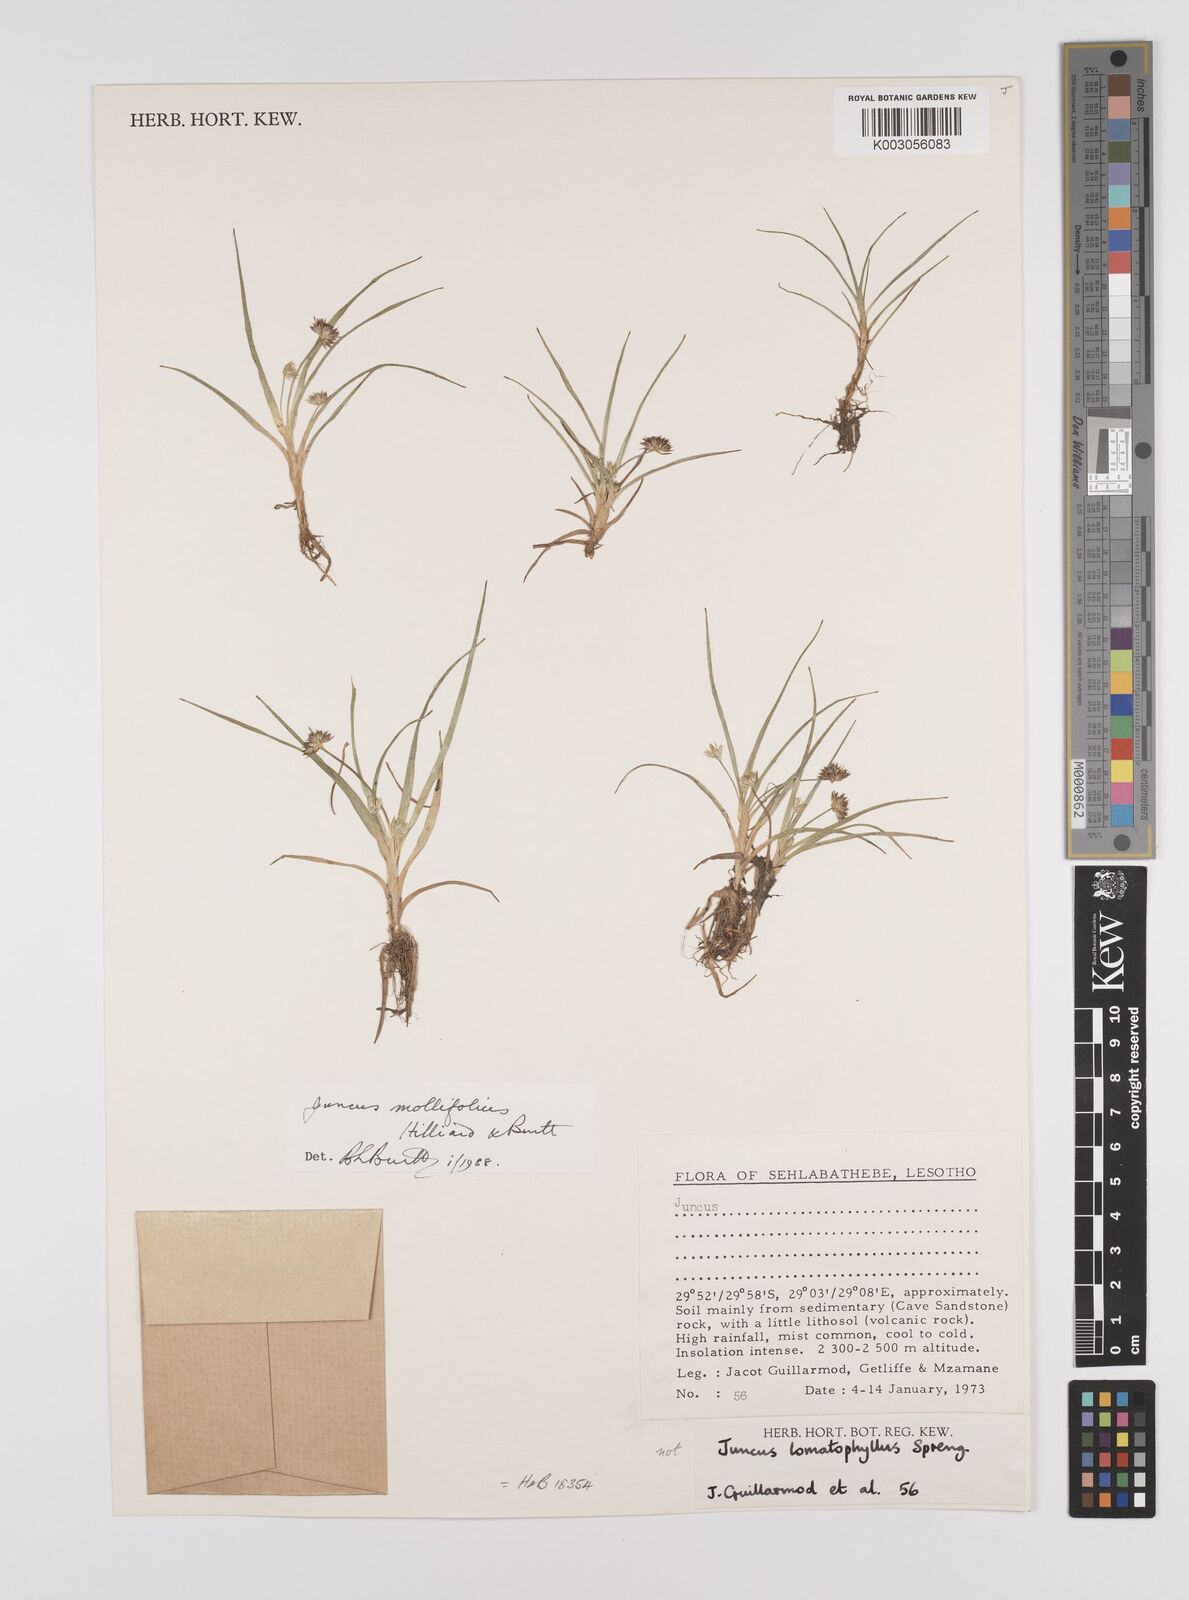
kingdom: Plantae
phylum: Tracheophyta
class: Liliopsida
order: Poales
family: Juncaceae
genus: Juncus
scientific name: Juncus dregeanus
